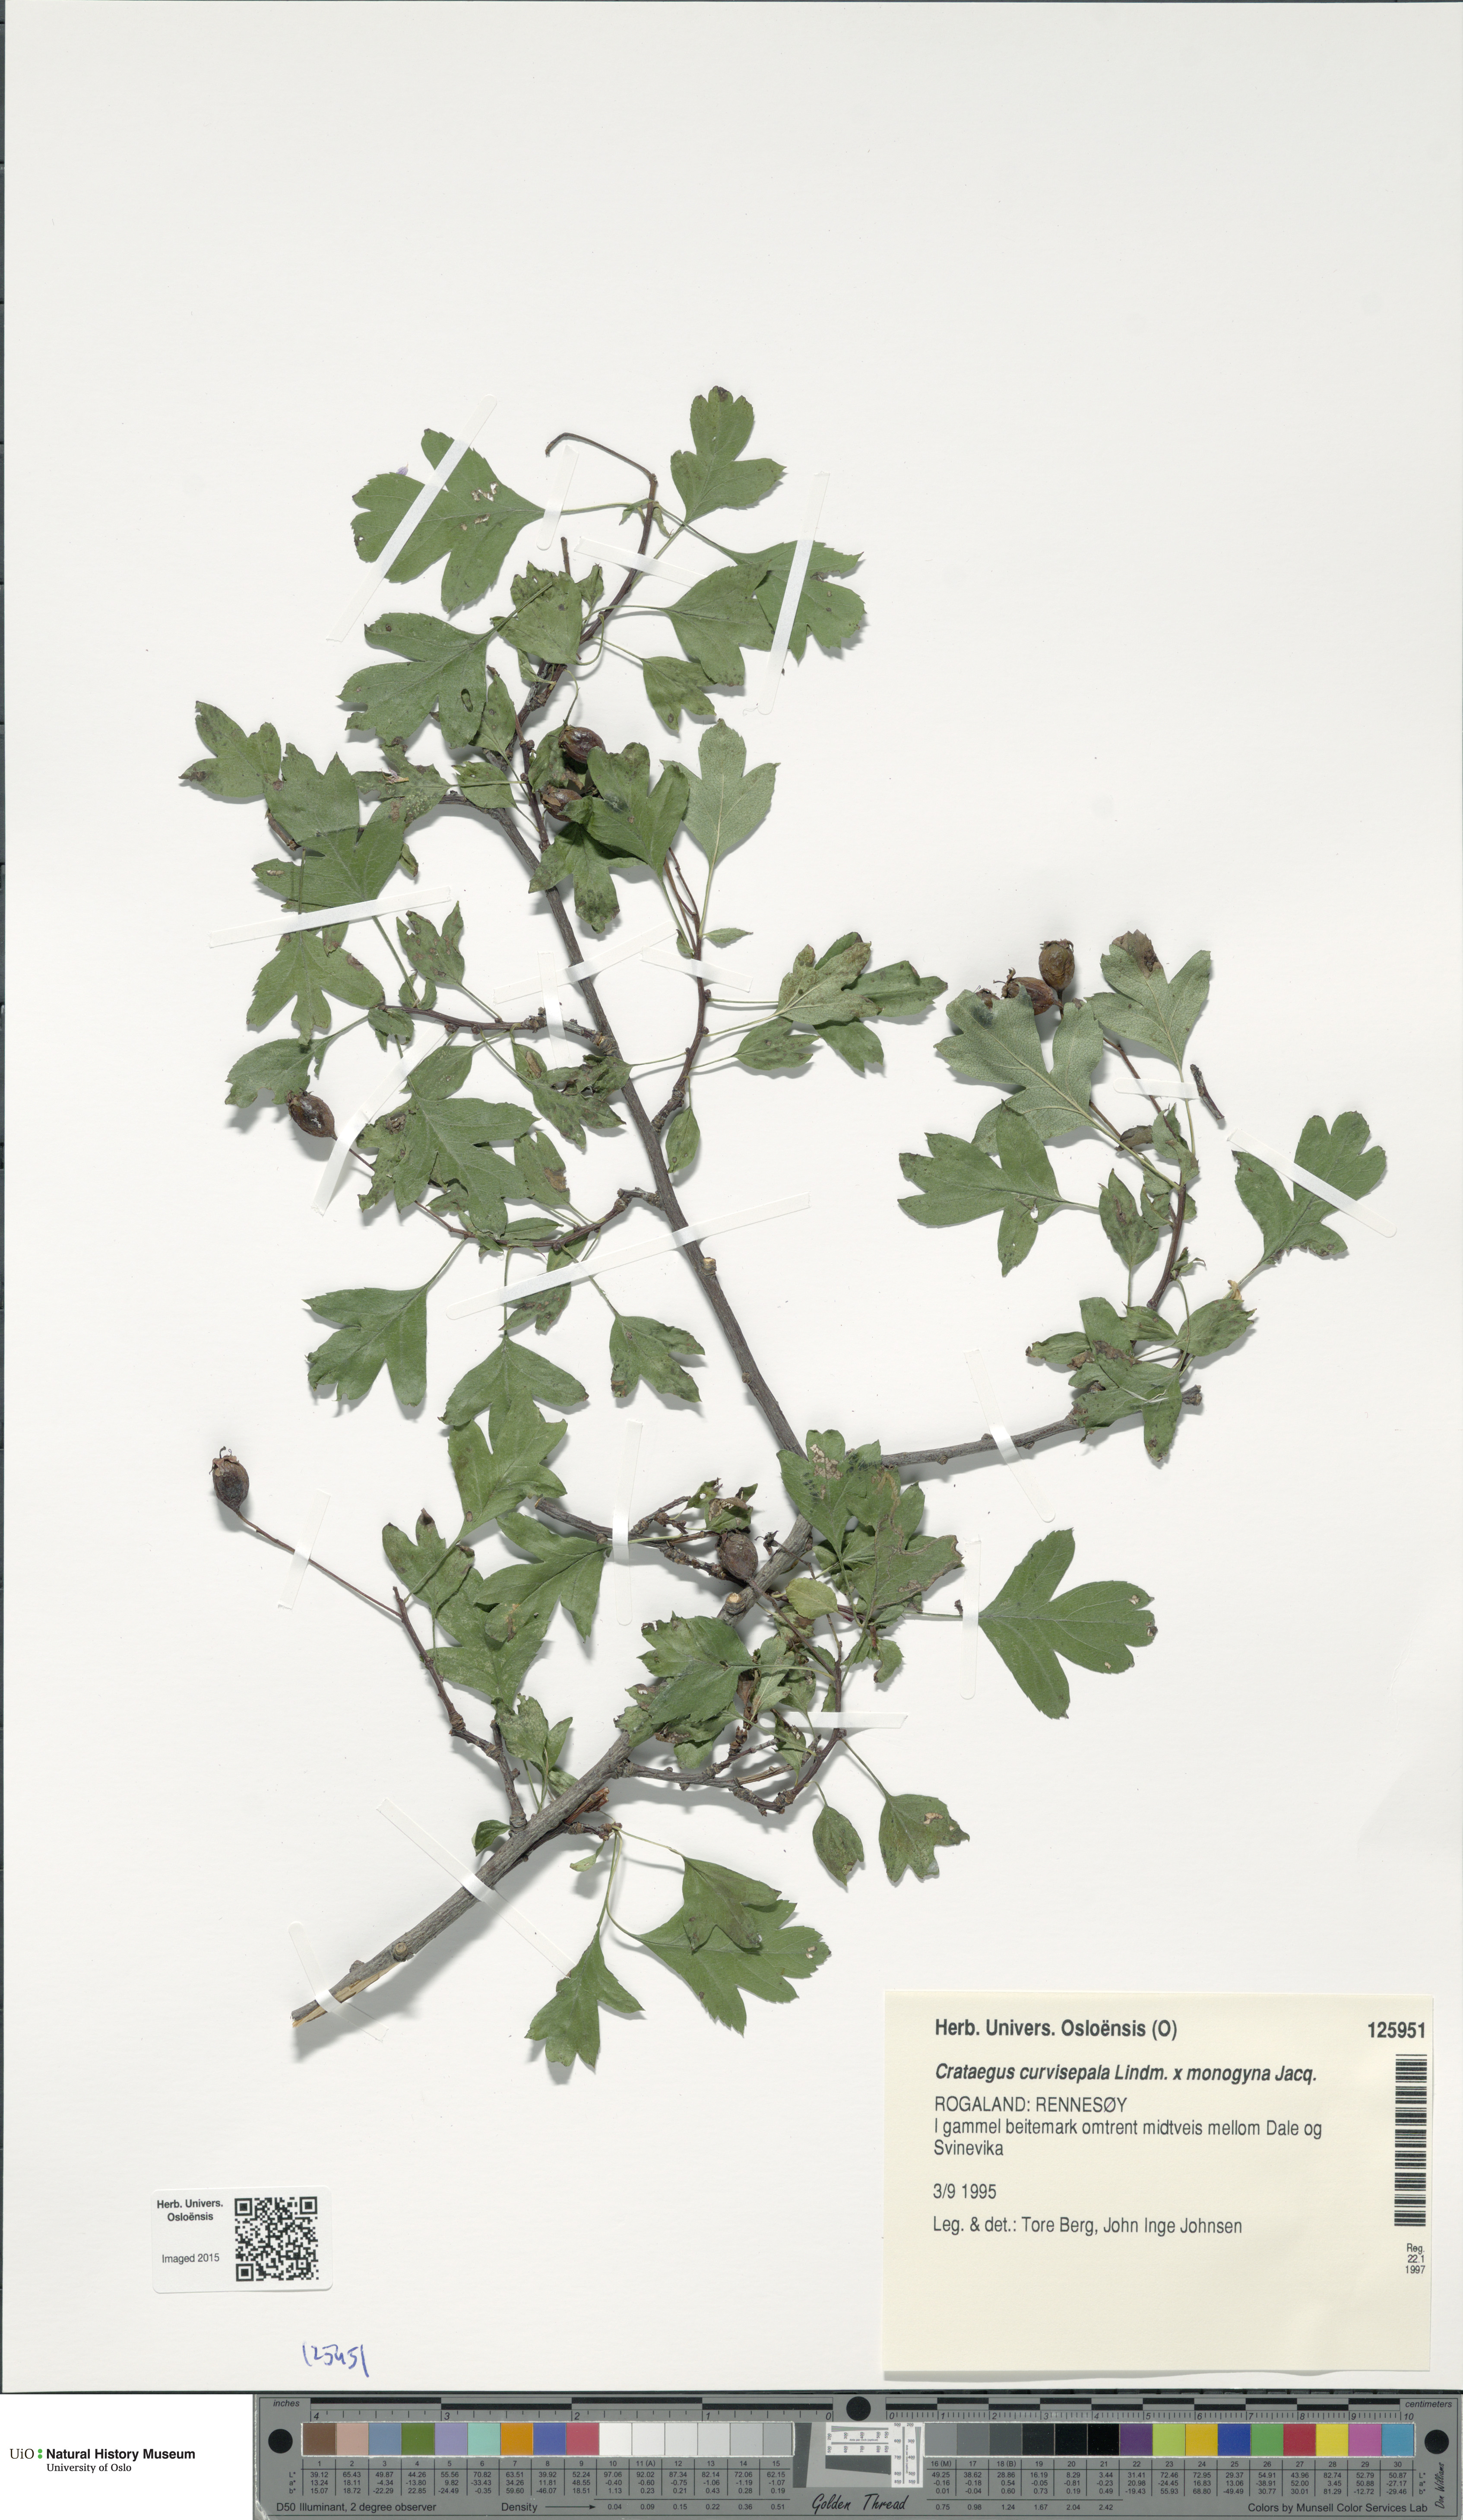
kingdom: Plantae
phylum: Tracheophyta
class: Magnoliopsida
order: Rosales
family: Rosaceae
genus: Crataegus
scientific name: Crataegus
